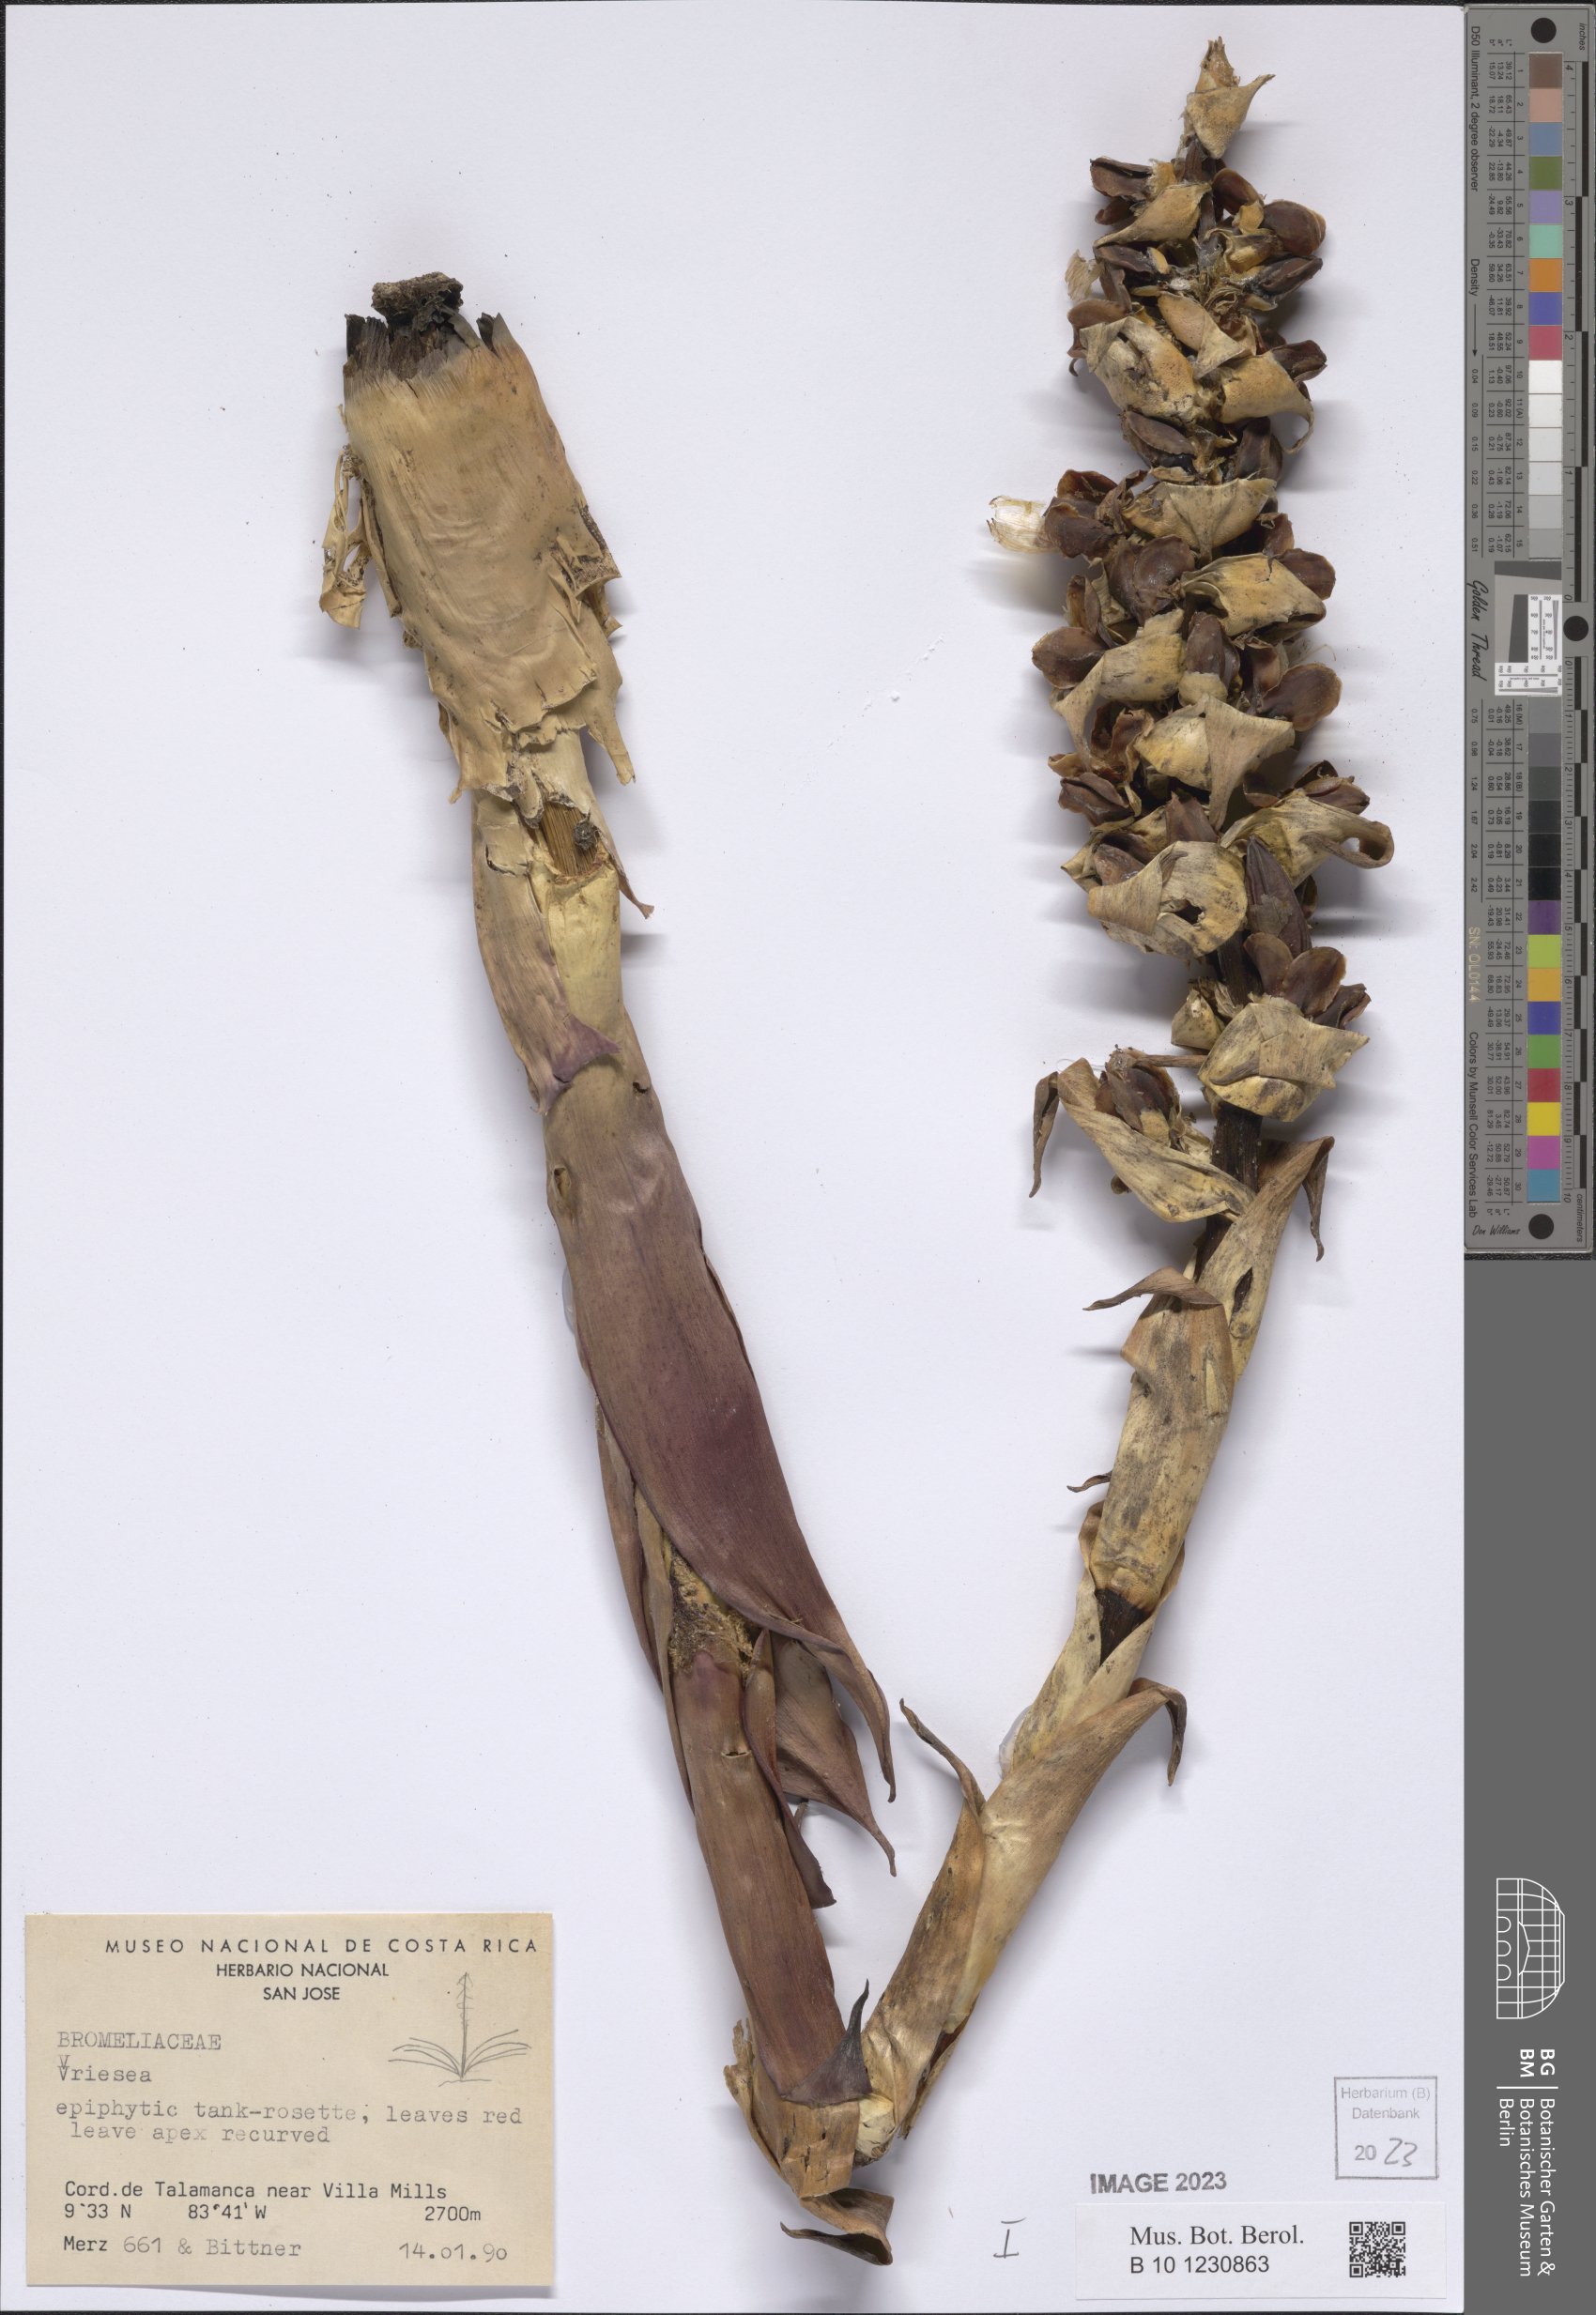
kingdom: Plantae
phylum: Tracheophyta
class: Liliopsida
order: Poales
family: Bromeliaceae
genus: Vriesea
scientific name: Vriesea
